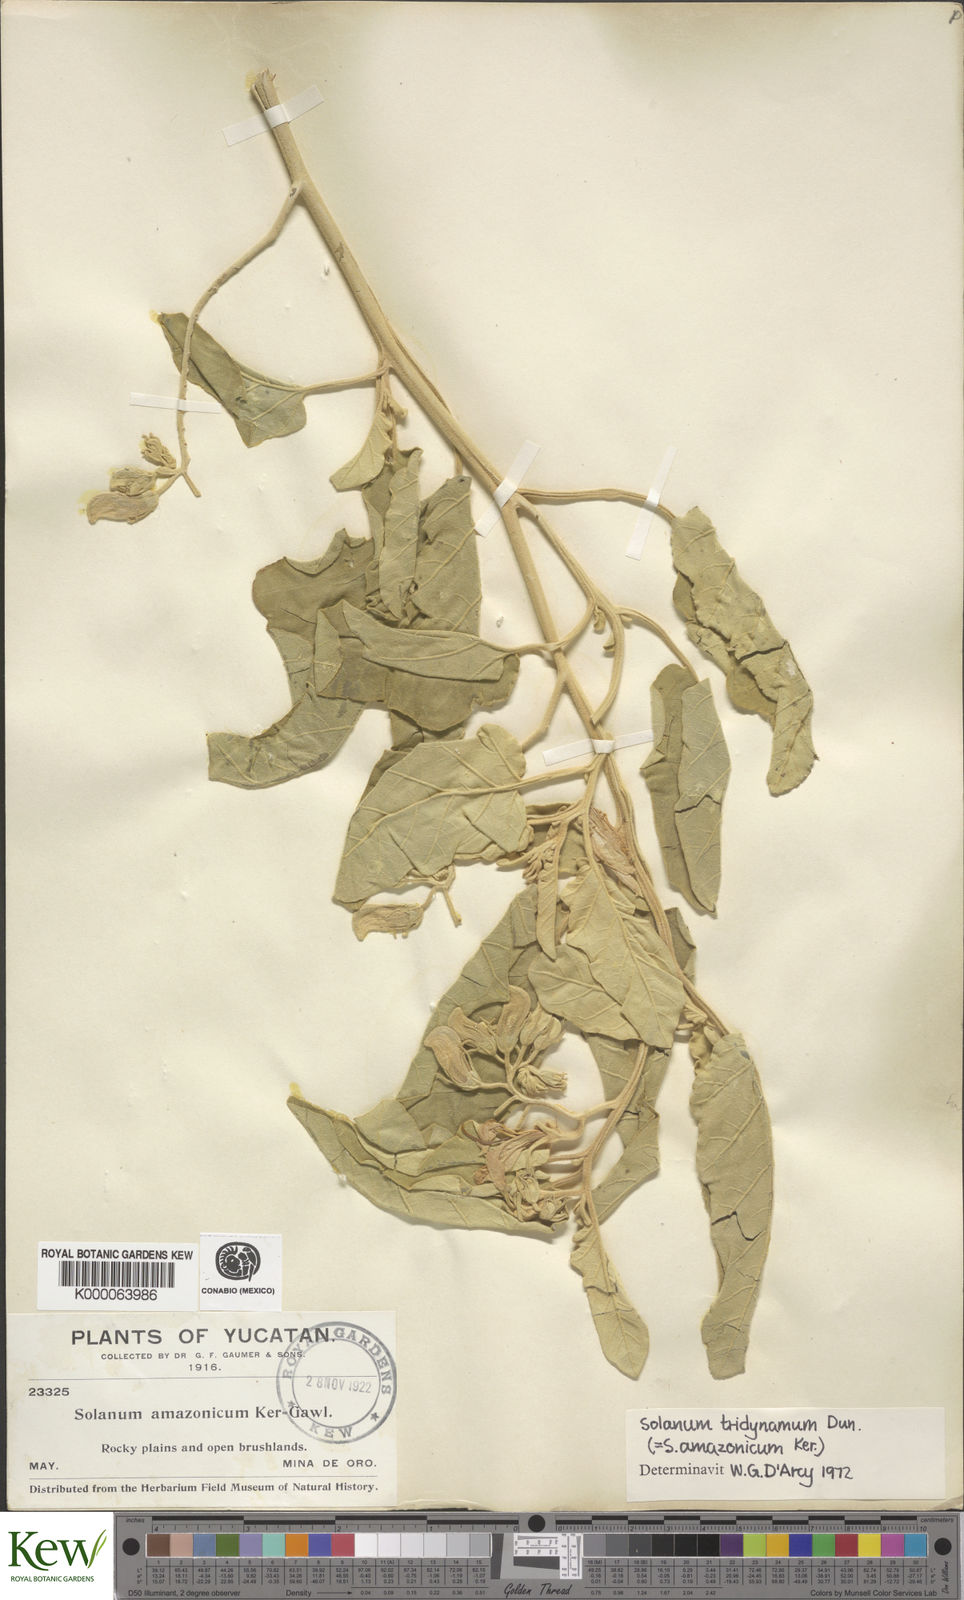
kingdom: Plantae
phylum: Tracheophyta
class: Magnoliopsida
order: Solanales
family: Solanaceae
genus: Solanum
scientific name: Solanum houstonii
